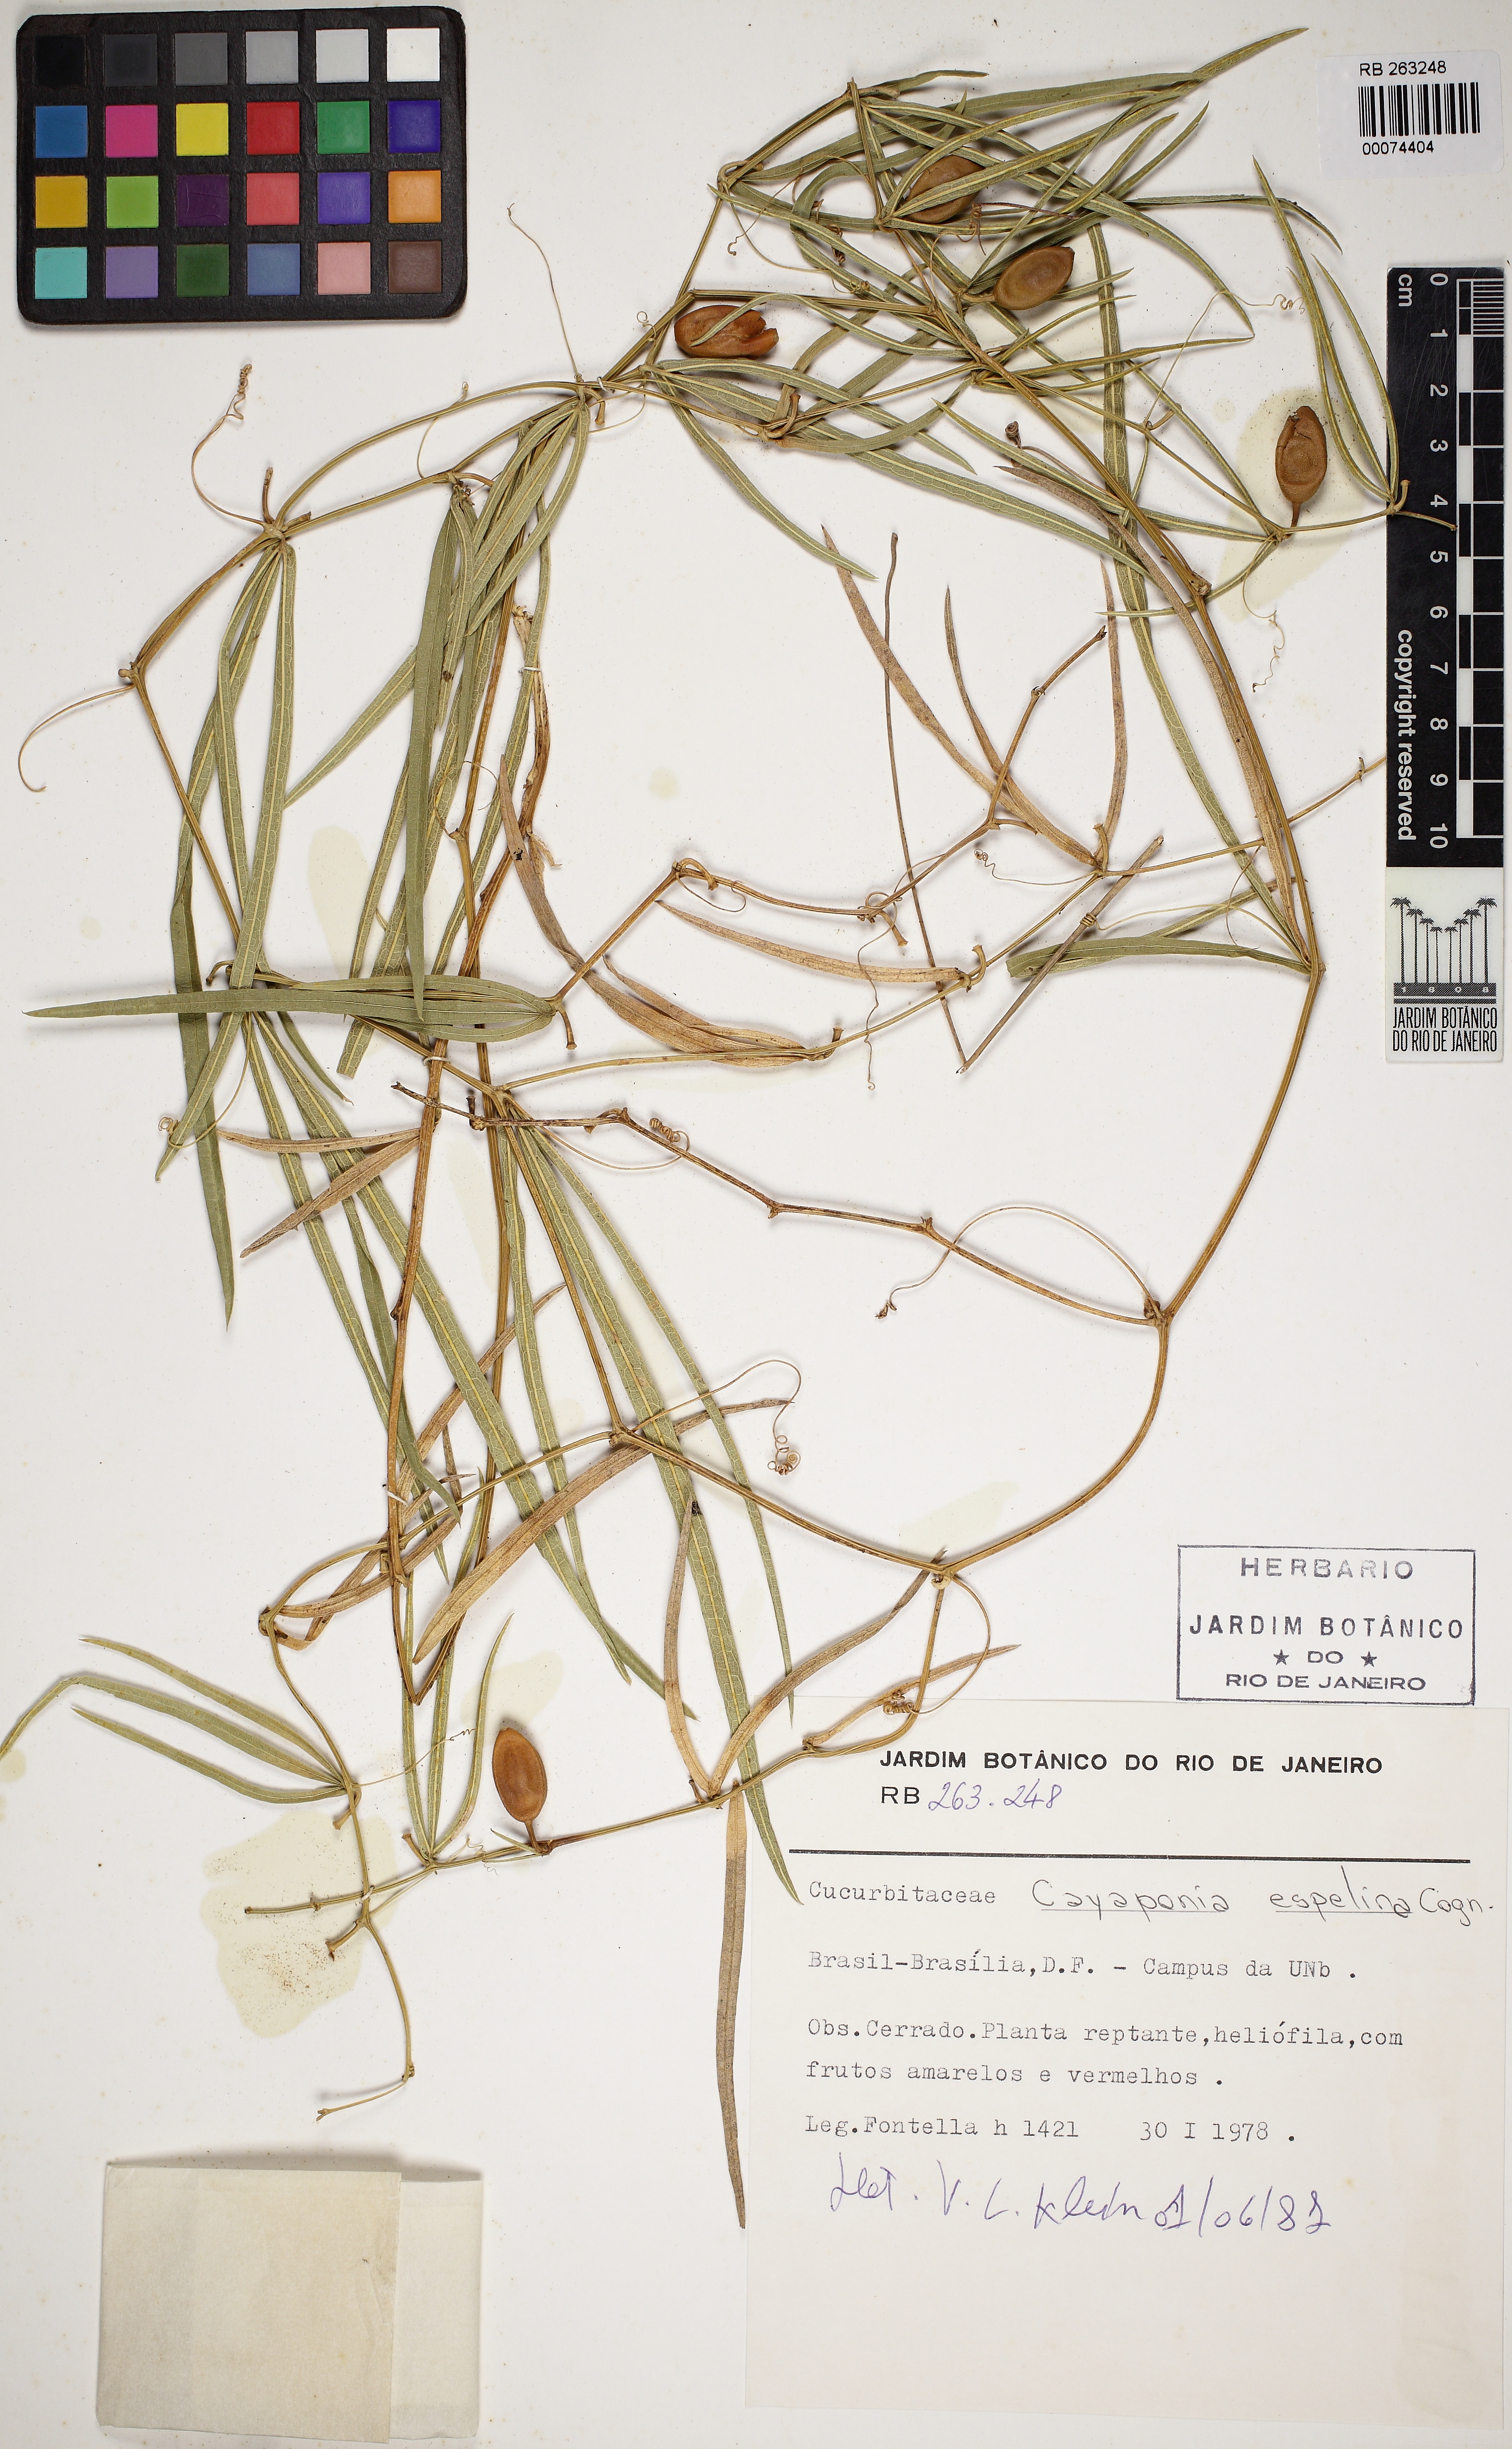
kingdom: Plantae
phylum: Tracheophyta
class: Magnoliopsida
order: Cucurbitales
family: Cucurbitaceae
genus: Cayaponia
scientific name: Cayaponia espelina
